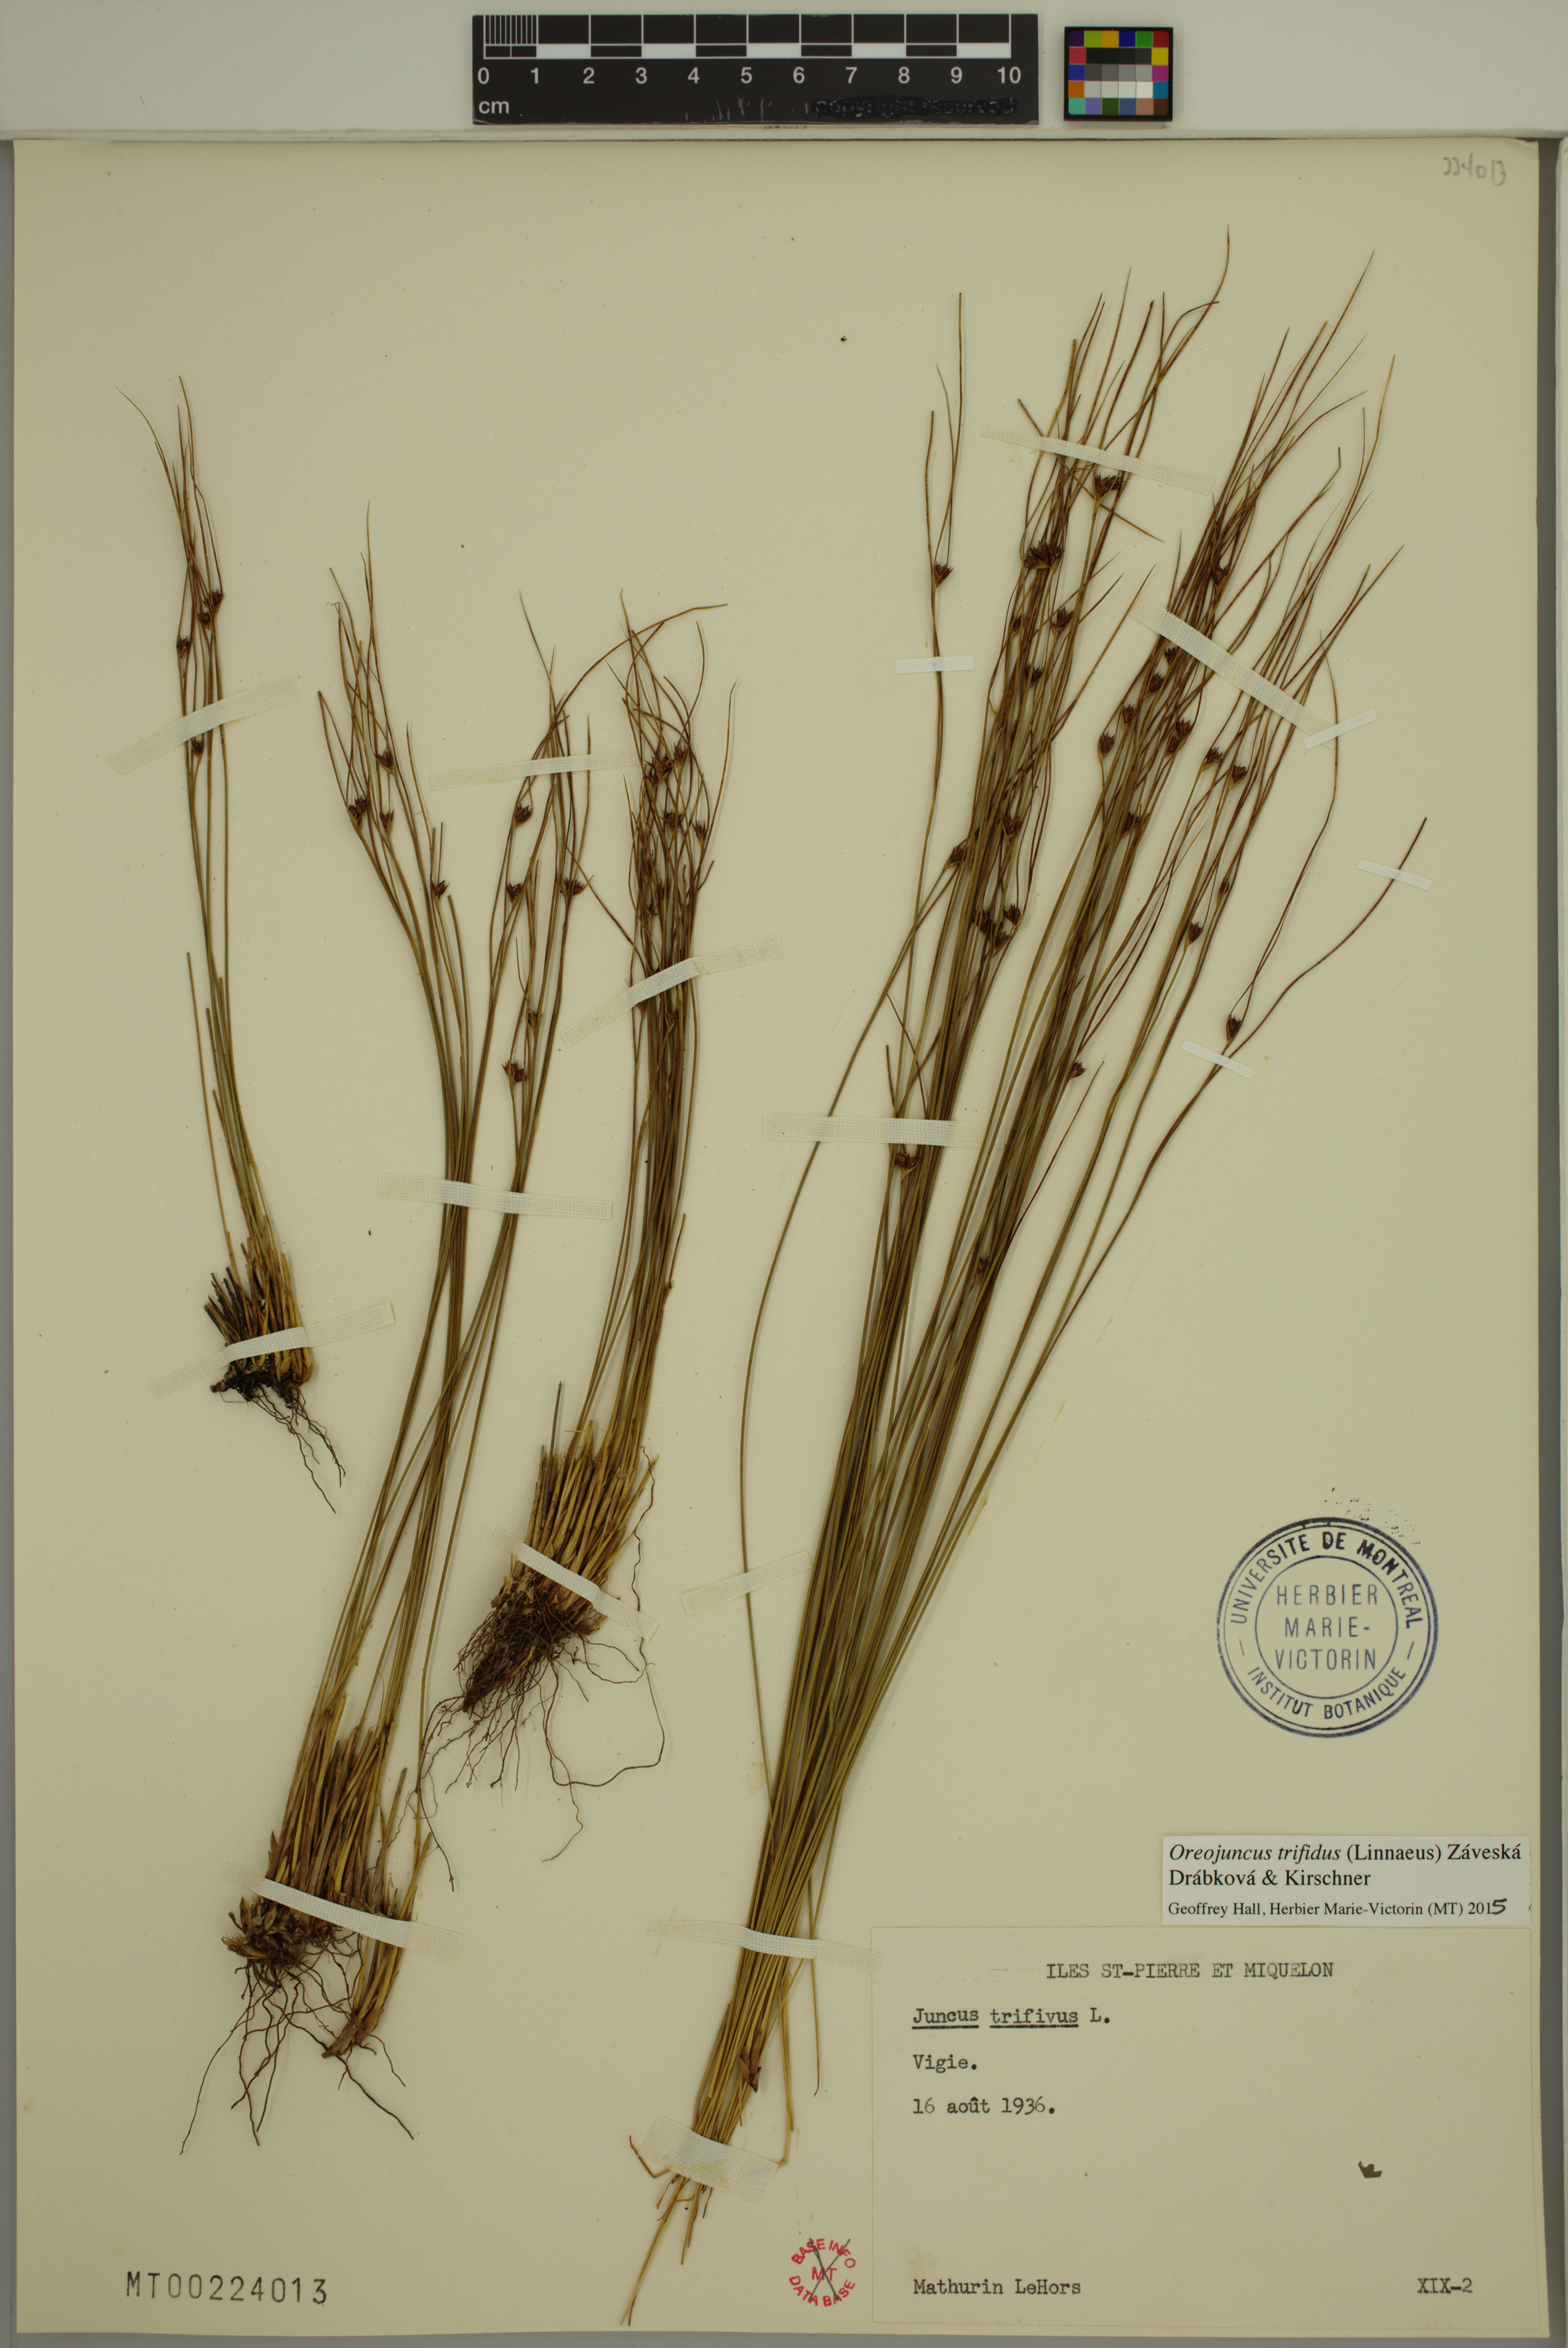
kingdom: Plantae
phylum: Tracheophyta
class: Liliopsida
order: Poales
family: Juncaceae
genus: Oreojuncus
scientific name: Oreojuncus trifidus
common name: Highland rush
